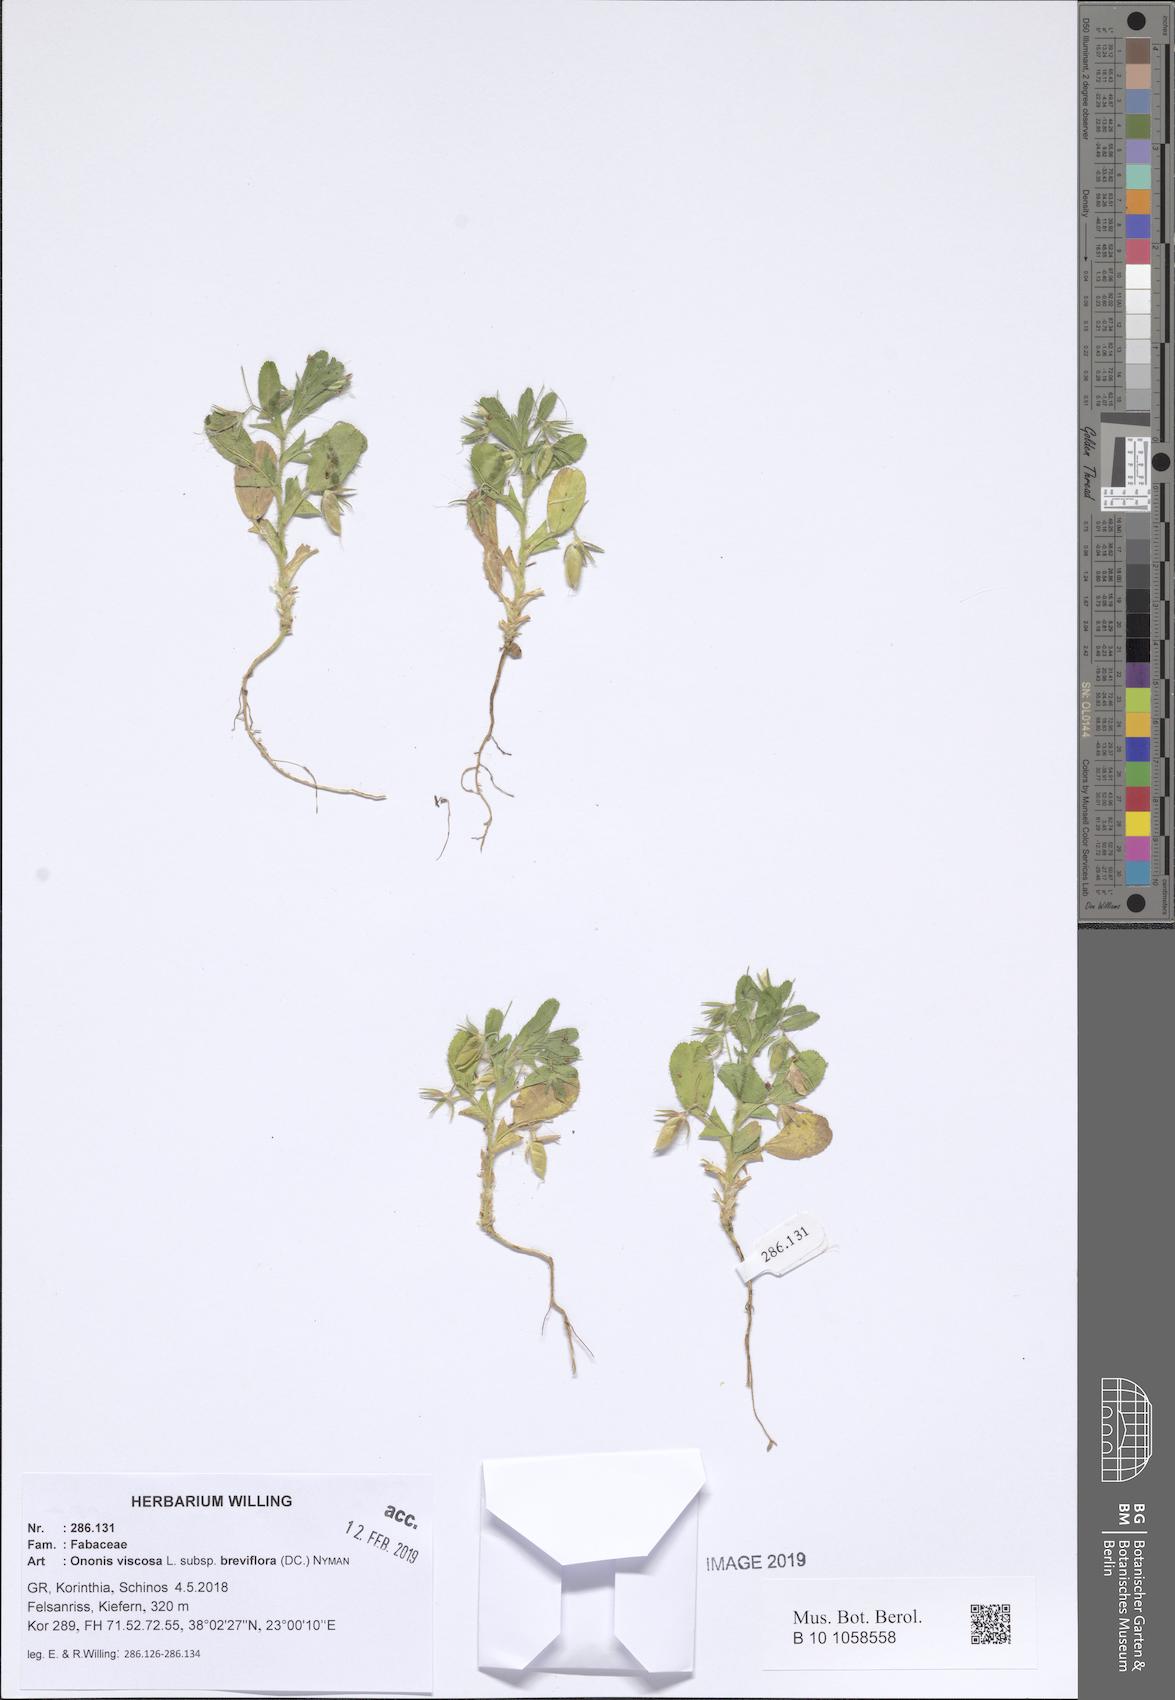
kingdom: Plantae
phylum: Tracheophyta
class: Magnoliopsida
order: Fabales
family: Fabaceae
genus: Ononis
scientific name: Ononis viscosa
